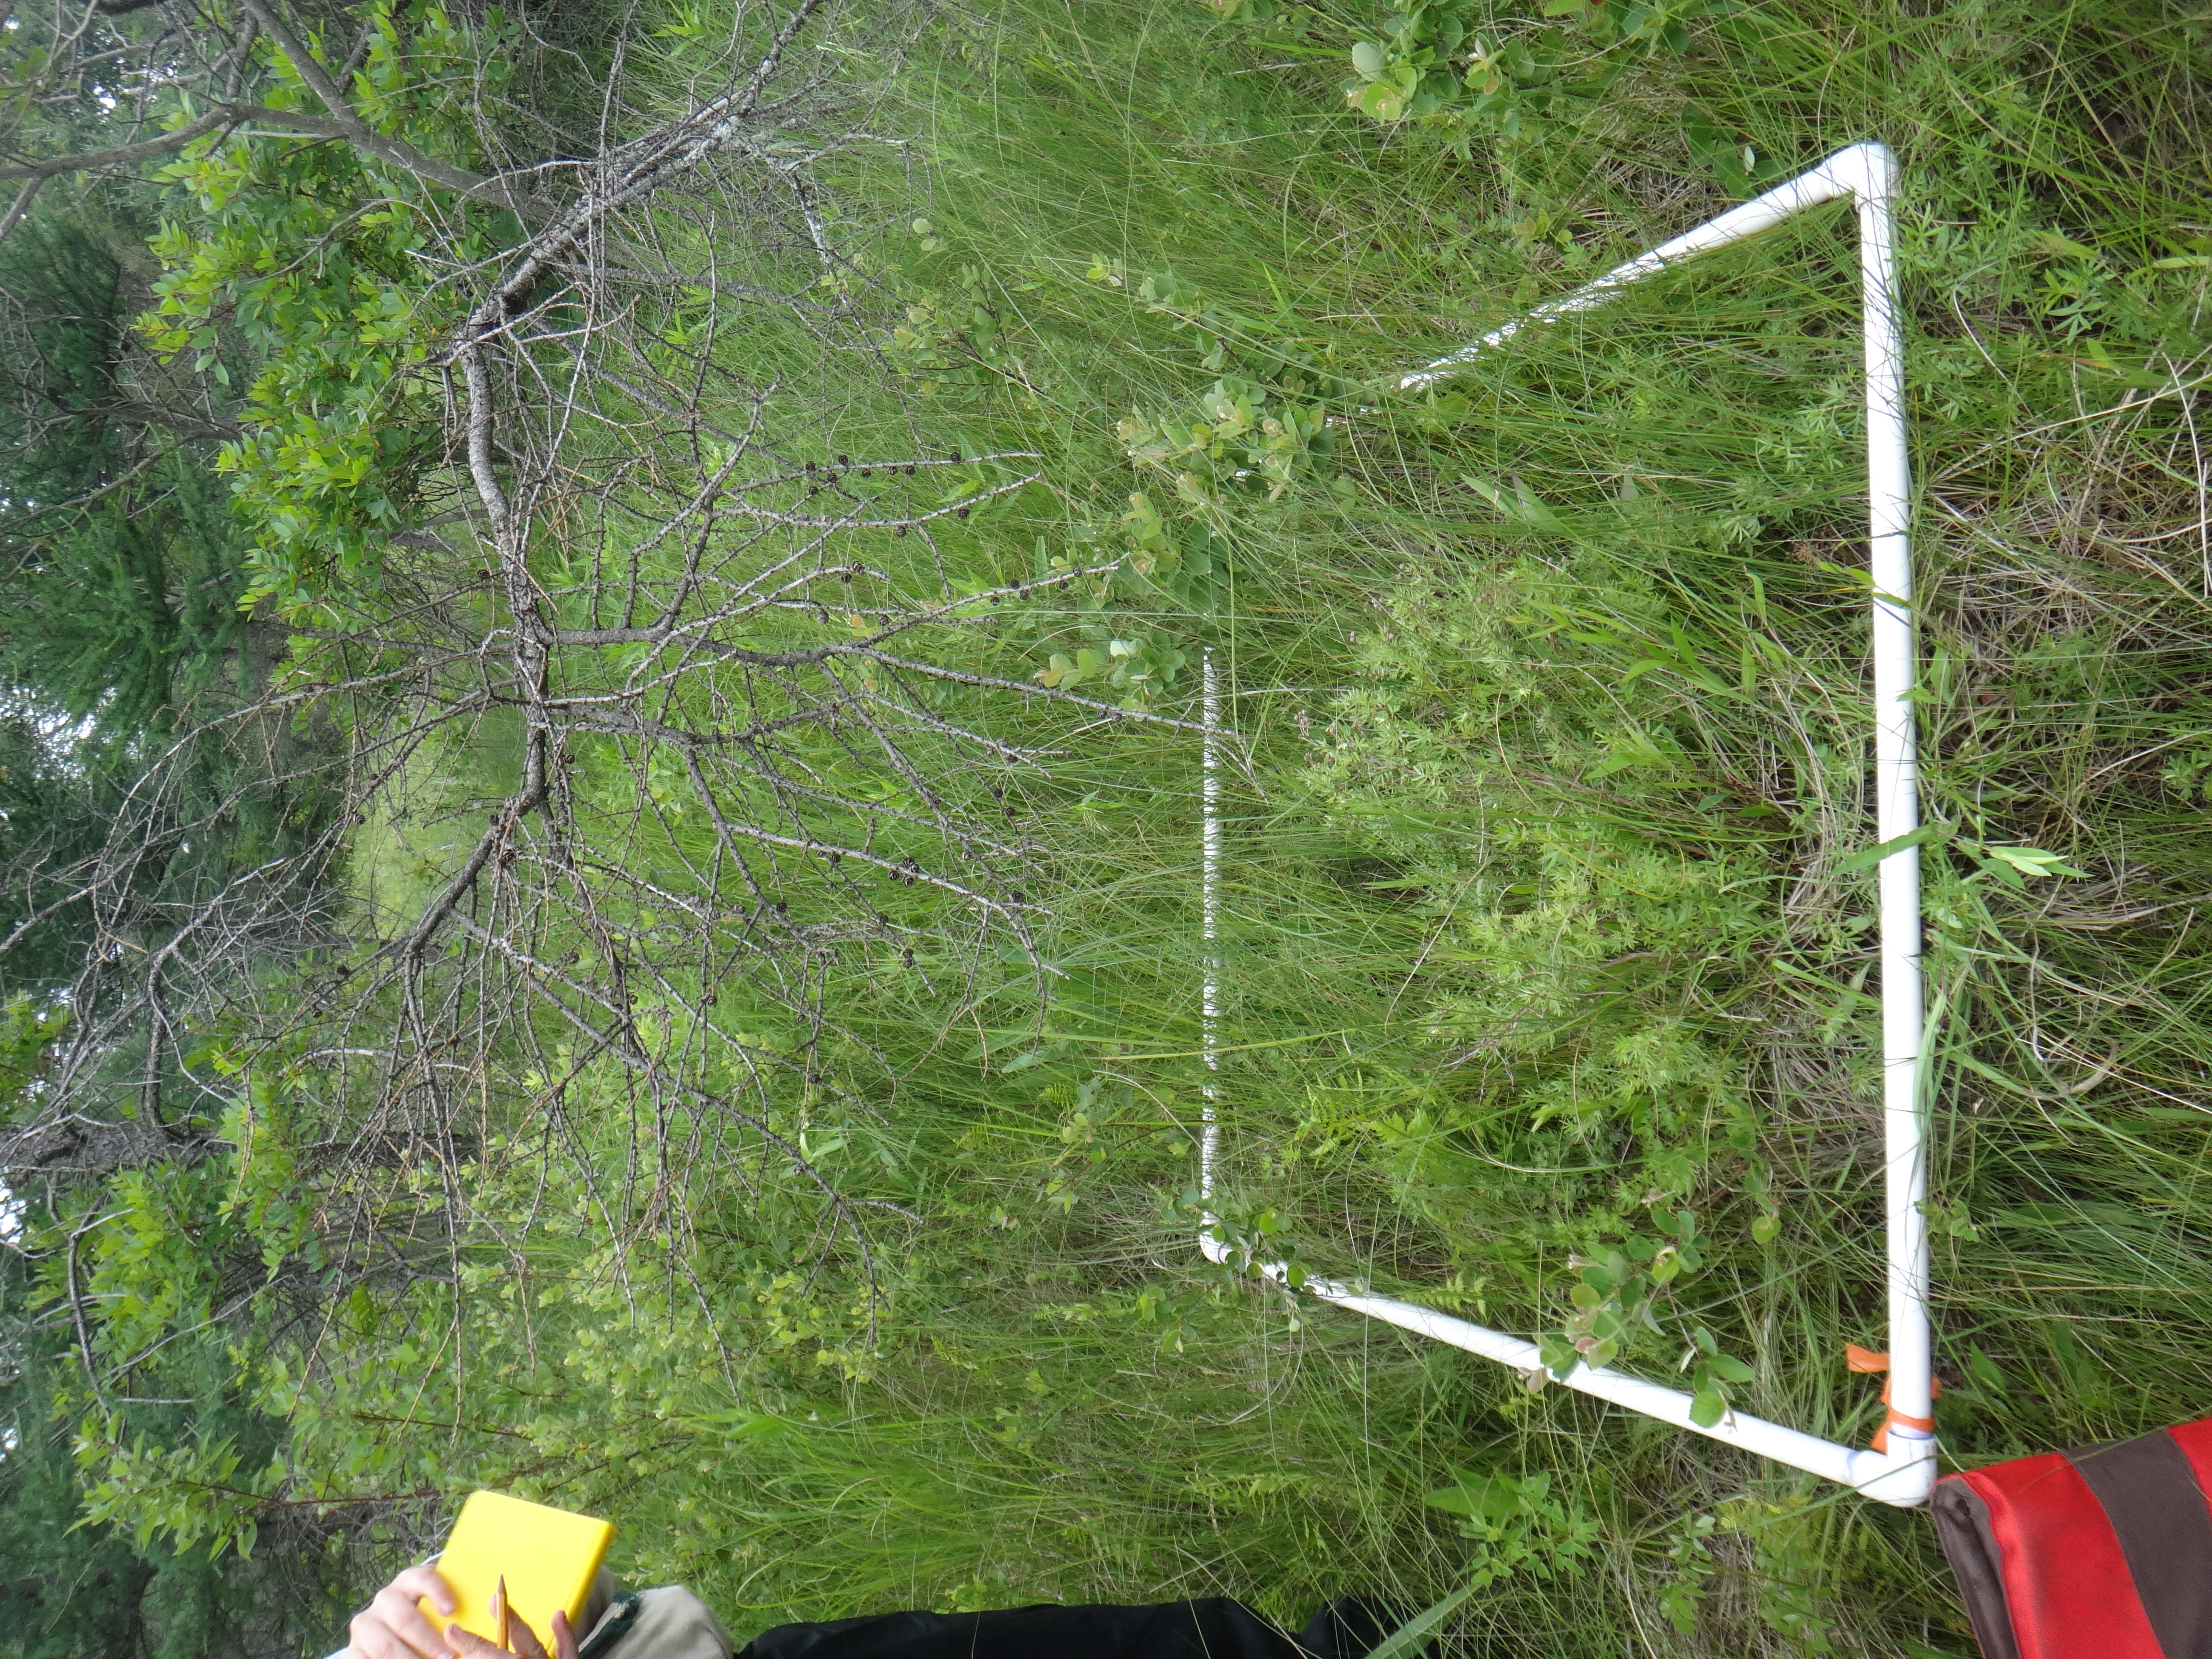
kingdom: Plantae
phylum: Tracheophyta
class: Liliopsida
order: Poales
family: Poaceae
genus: Calamagrostis
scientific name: Calamagrostis canadensis
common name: Canada bluejoint
